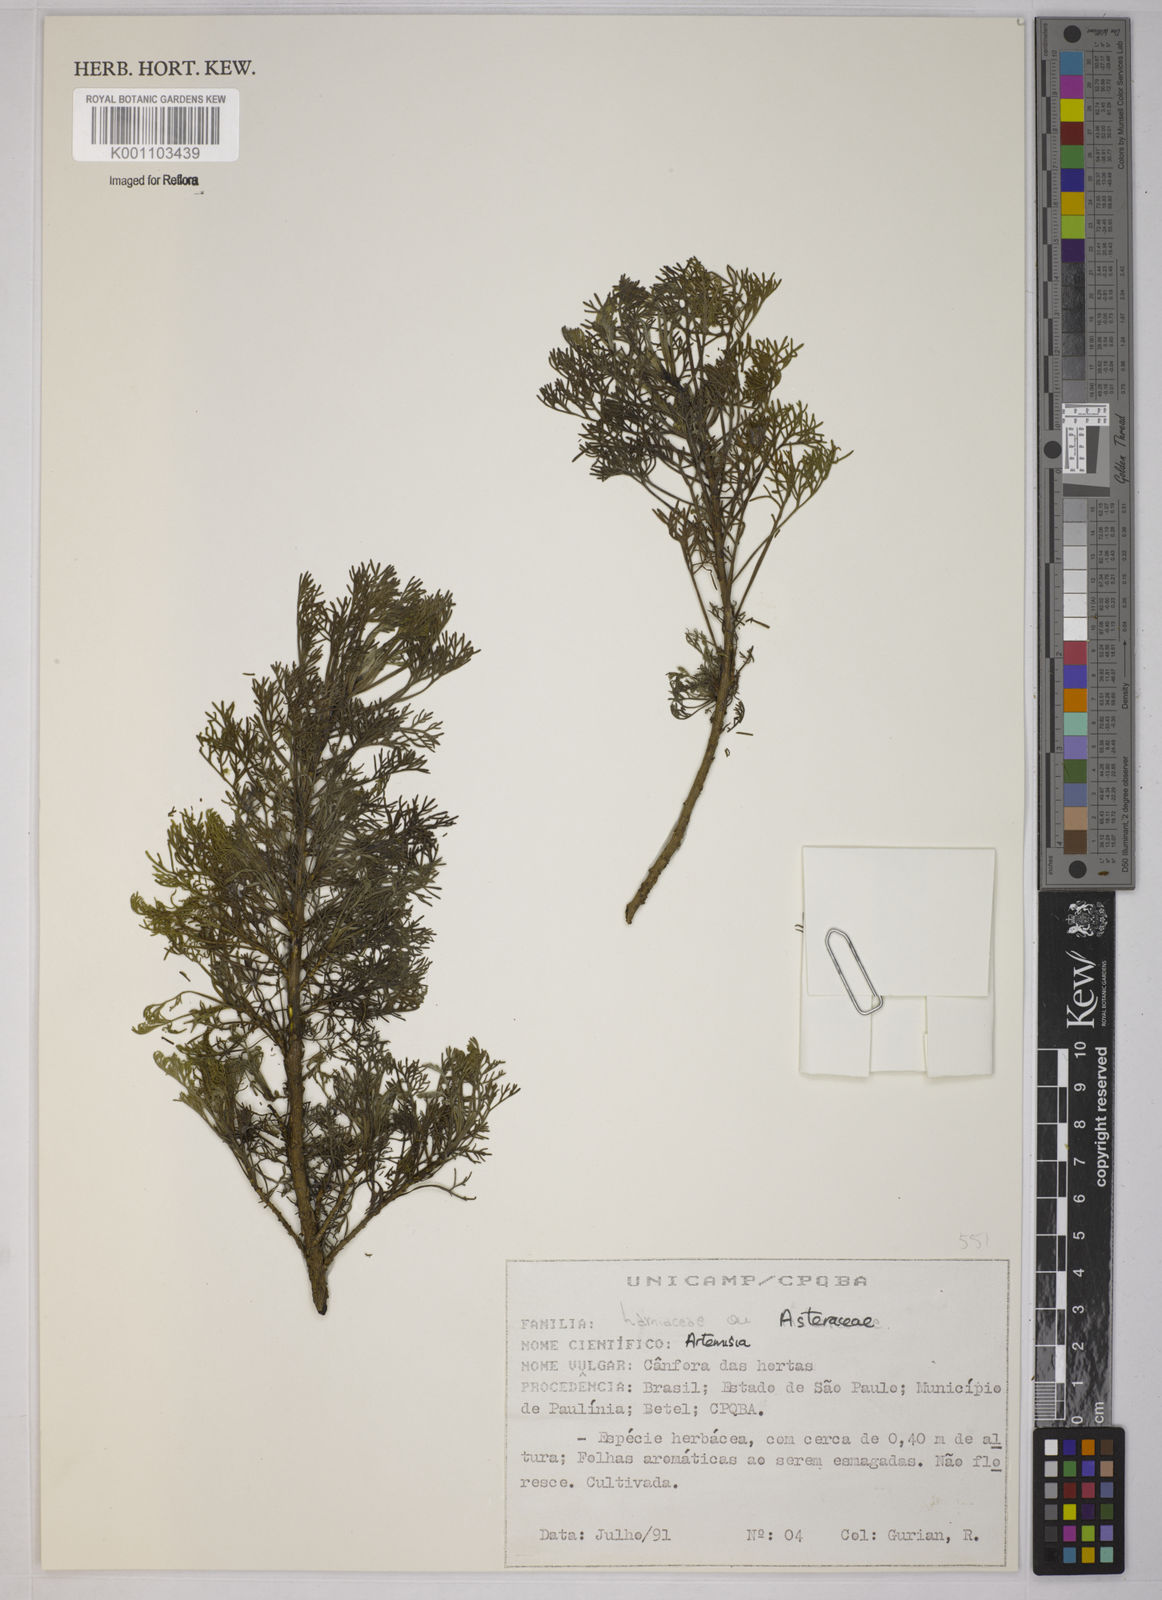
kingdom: Plantae
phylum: Tracheophyta
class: Magnoliopsida
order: Asterales
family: Asteraceae
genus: Artemisia
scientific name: Artemisia
